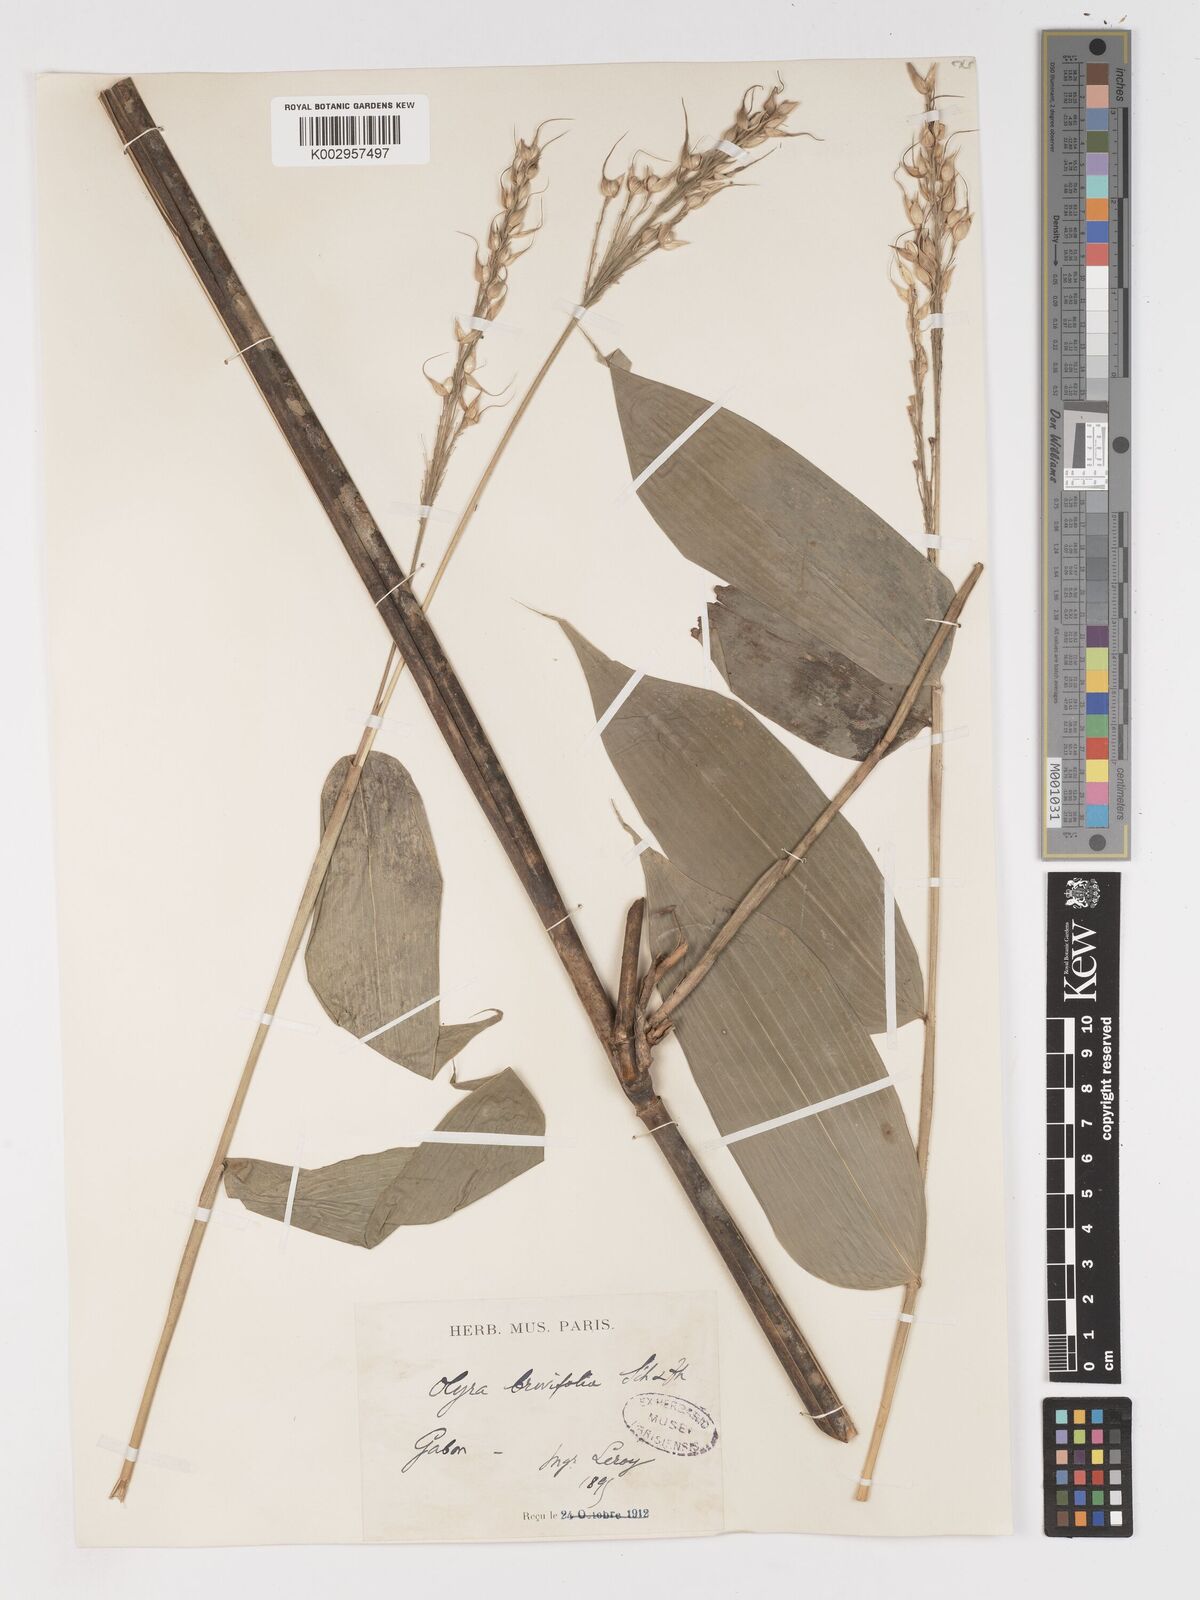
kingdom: Plantae
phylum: Tracheophyta
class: Liliopsida
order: Poales
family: Poaceae
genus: Olyra
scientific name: Olyra latifolia
